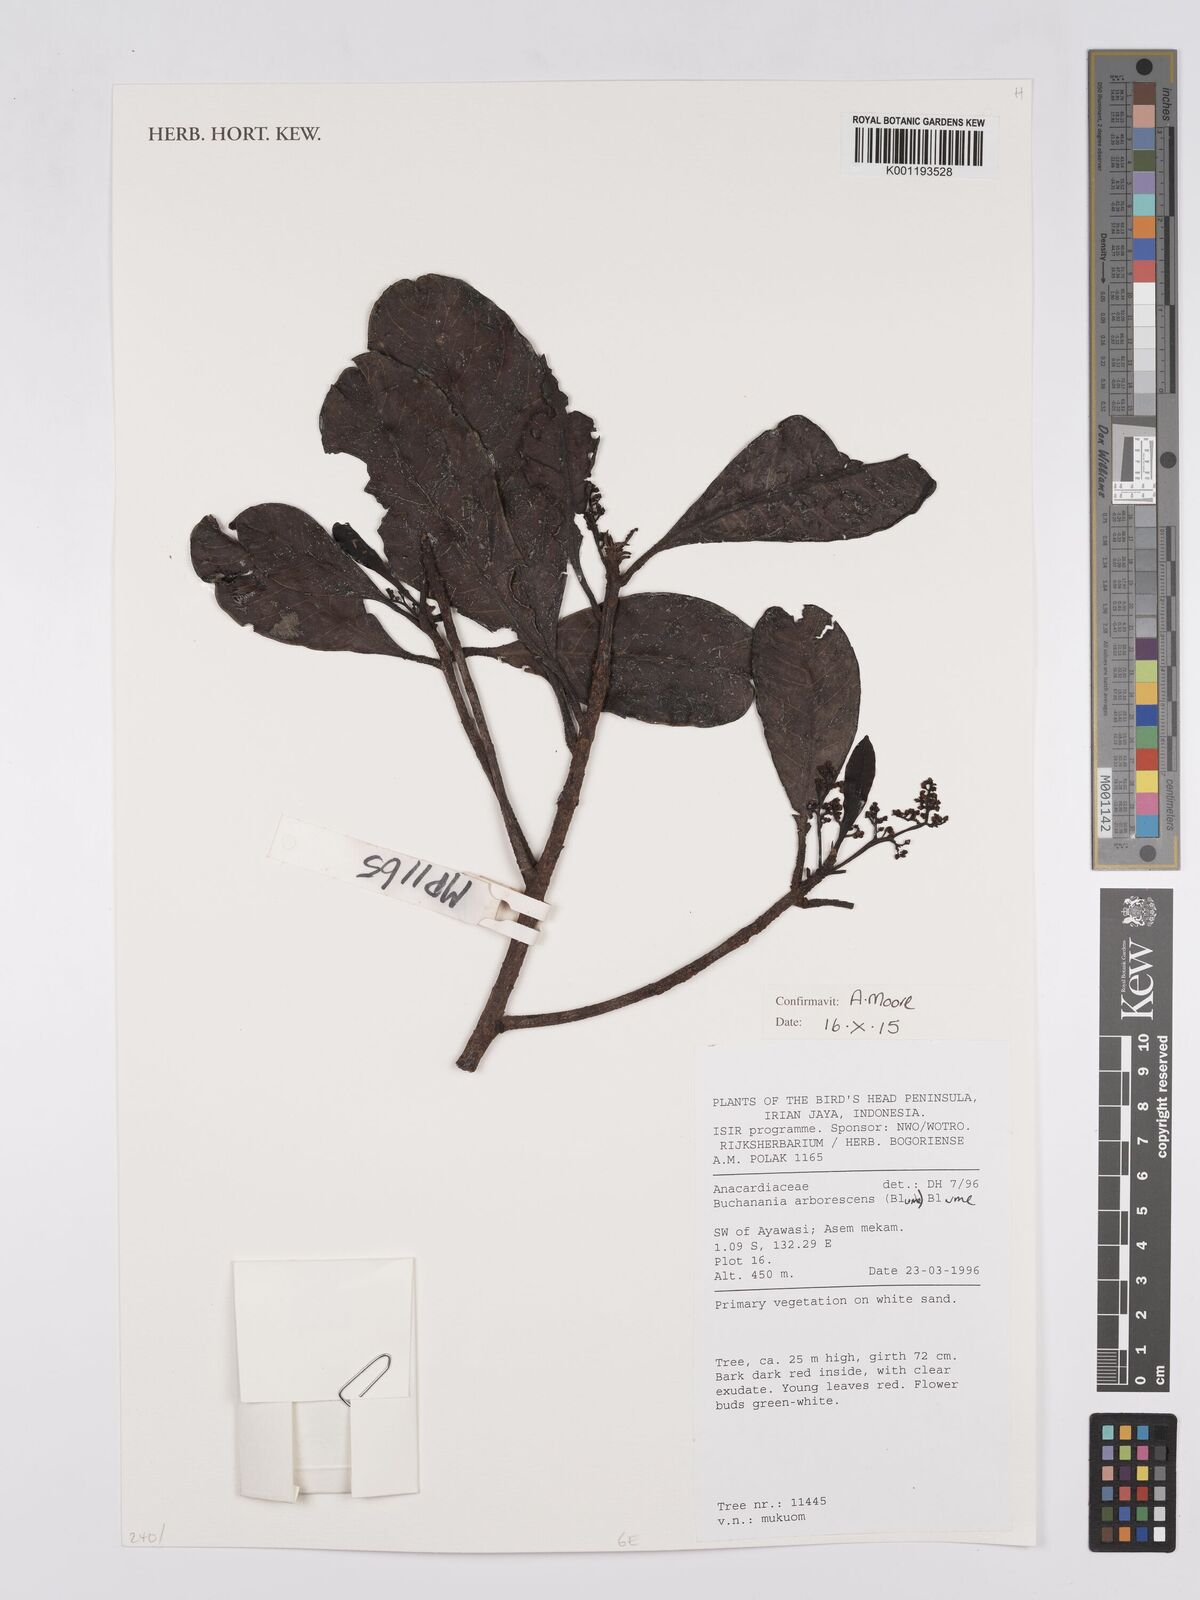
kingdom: Plantae
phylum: Tracheophyta
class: Magnoliopsida
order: Sapindales
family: Anacardiaceae
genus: Buchanania
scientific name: Buchanania arborescens
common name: Sparrow’s mango
